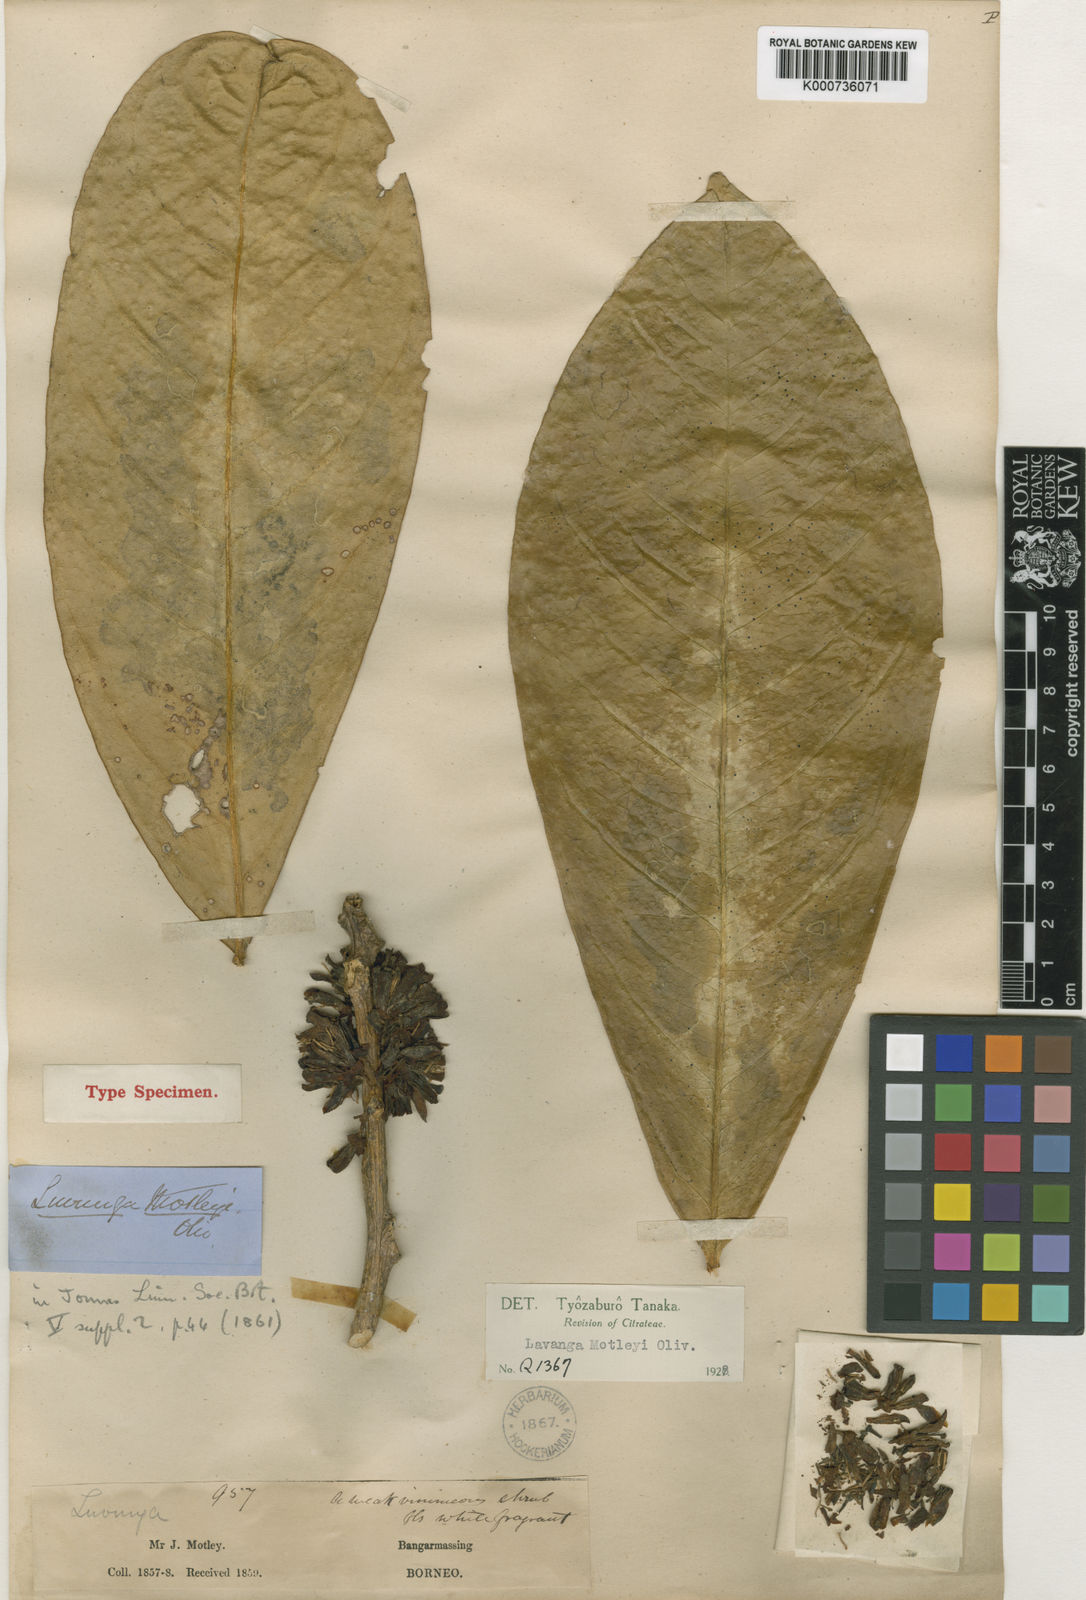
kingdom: Plantae
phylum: Tracheophyta
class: Magnoliopsida
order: Sapindales
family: Rutaceae
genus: Luvunga
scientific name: Luvunga scandens
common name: Indian luvunga
